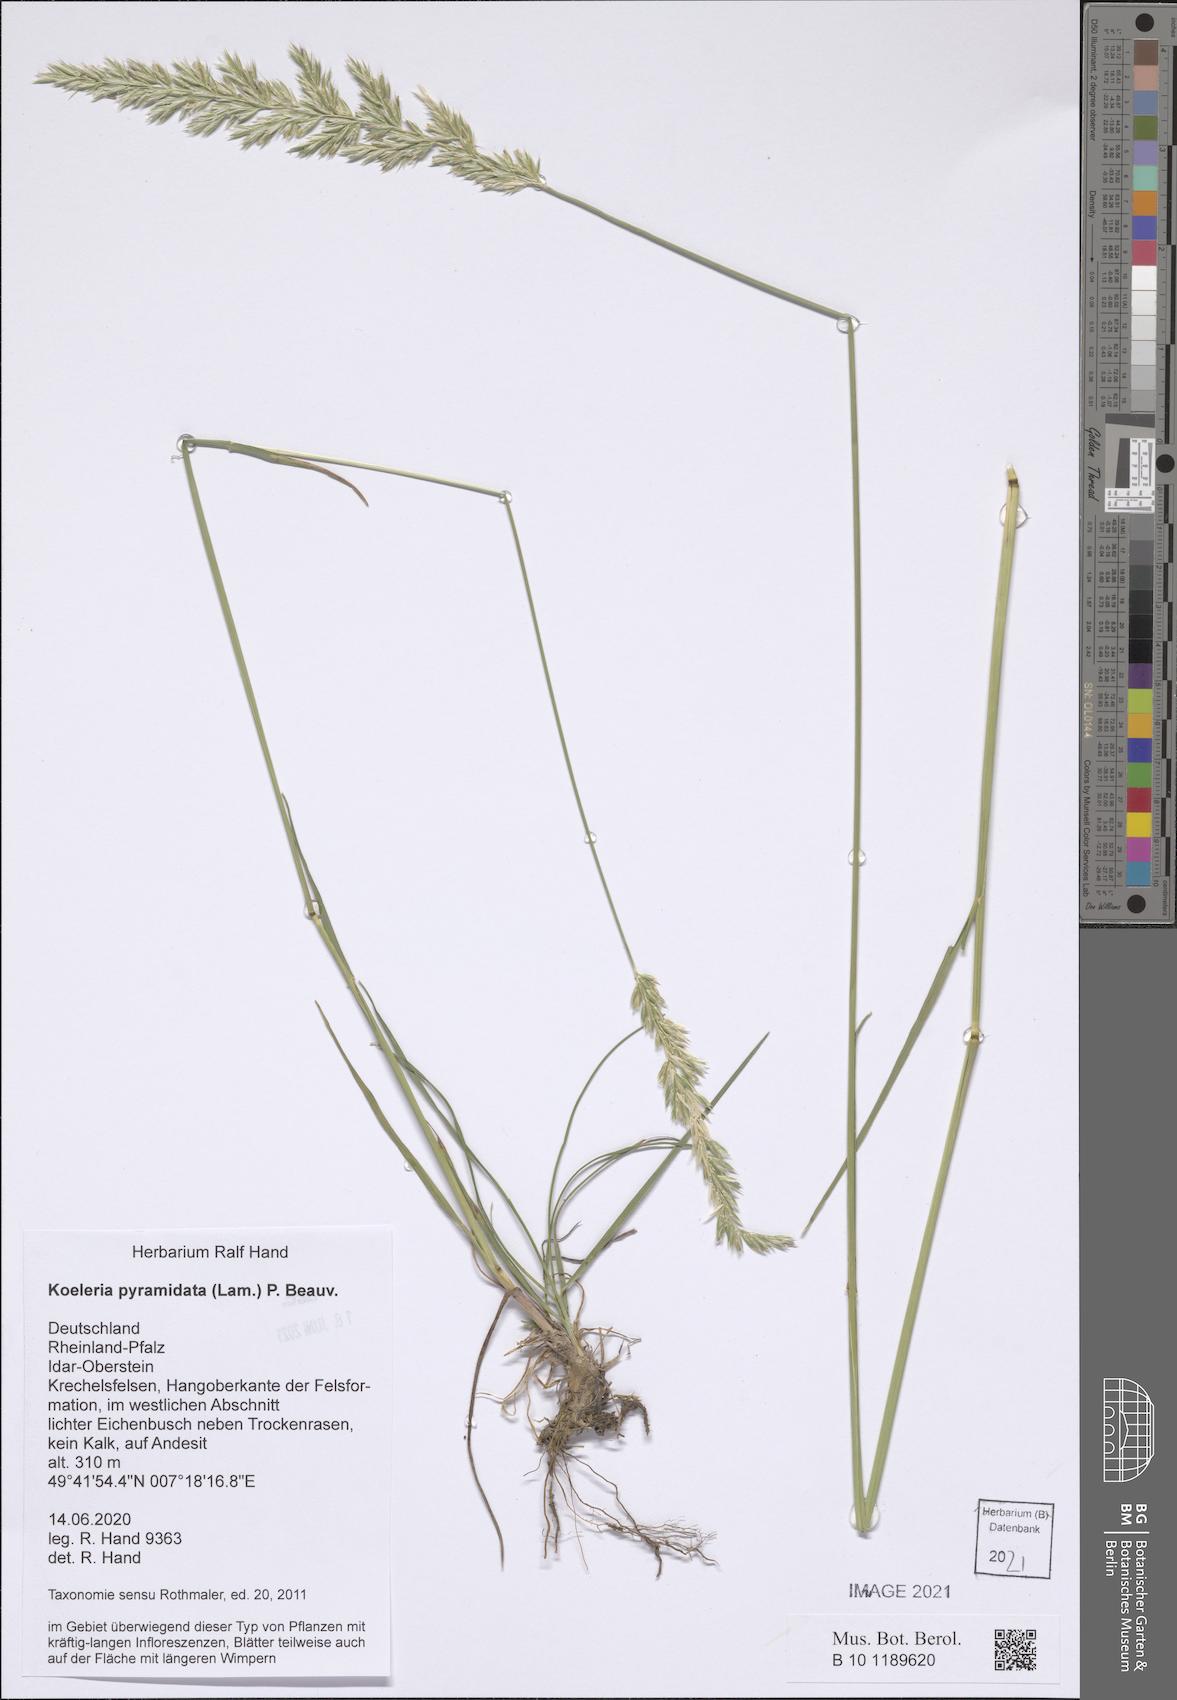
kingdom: Plantae
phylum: Tracheophyta
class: Liliopsida
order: Poales
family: Poaceae
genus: Koeleria
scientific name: Koeleria pyramidata
